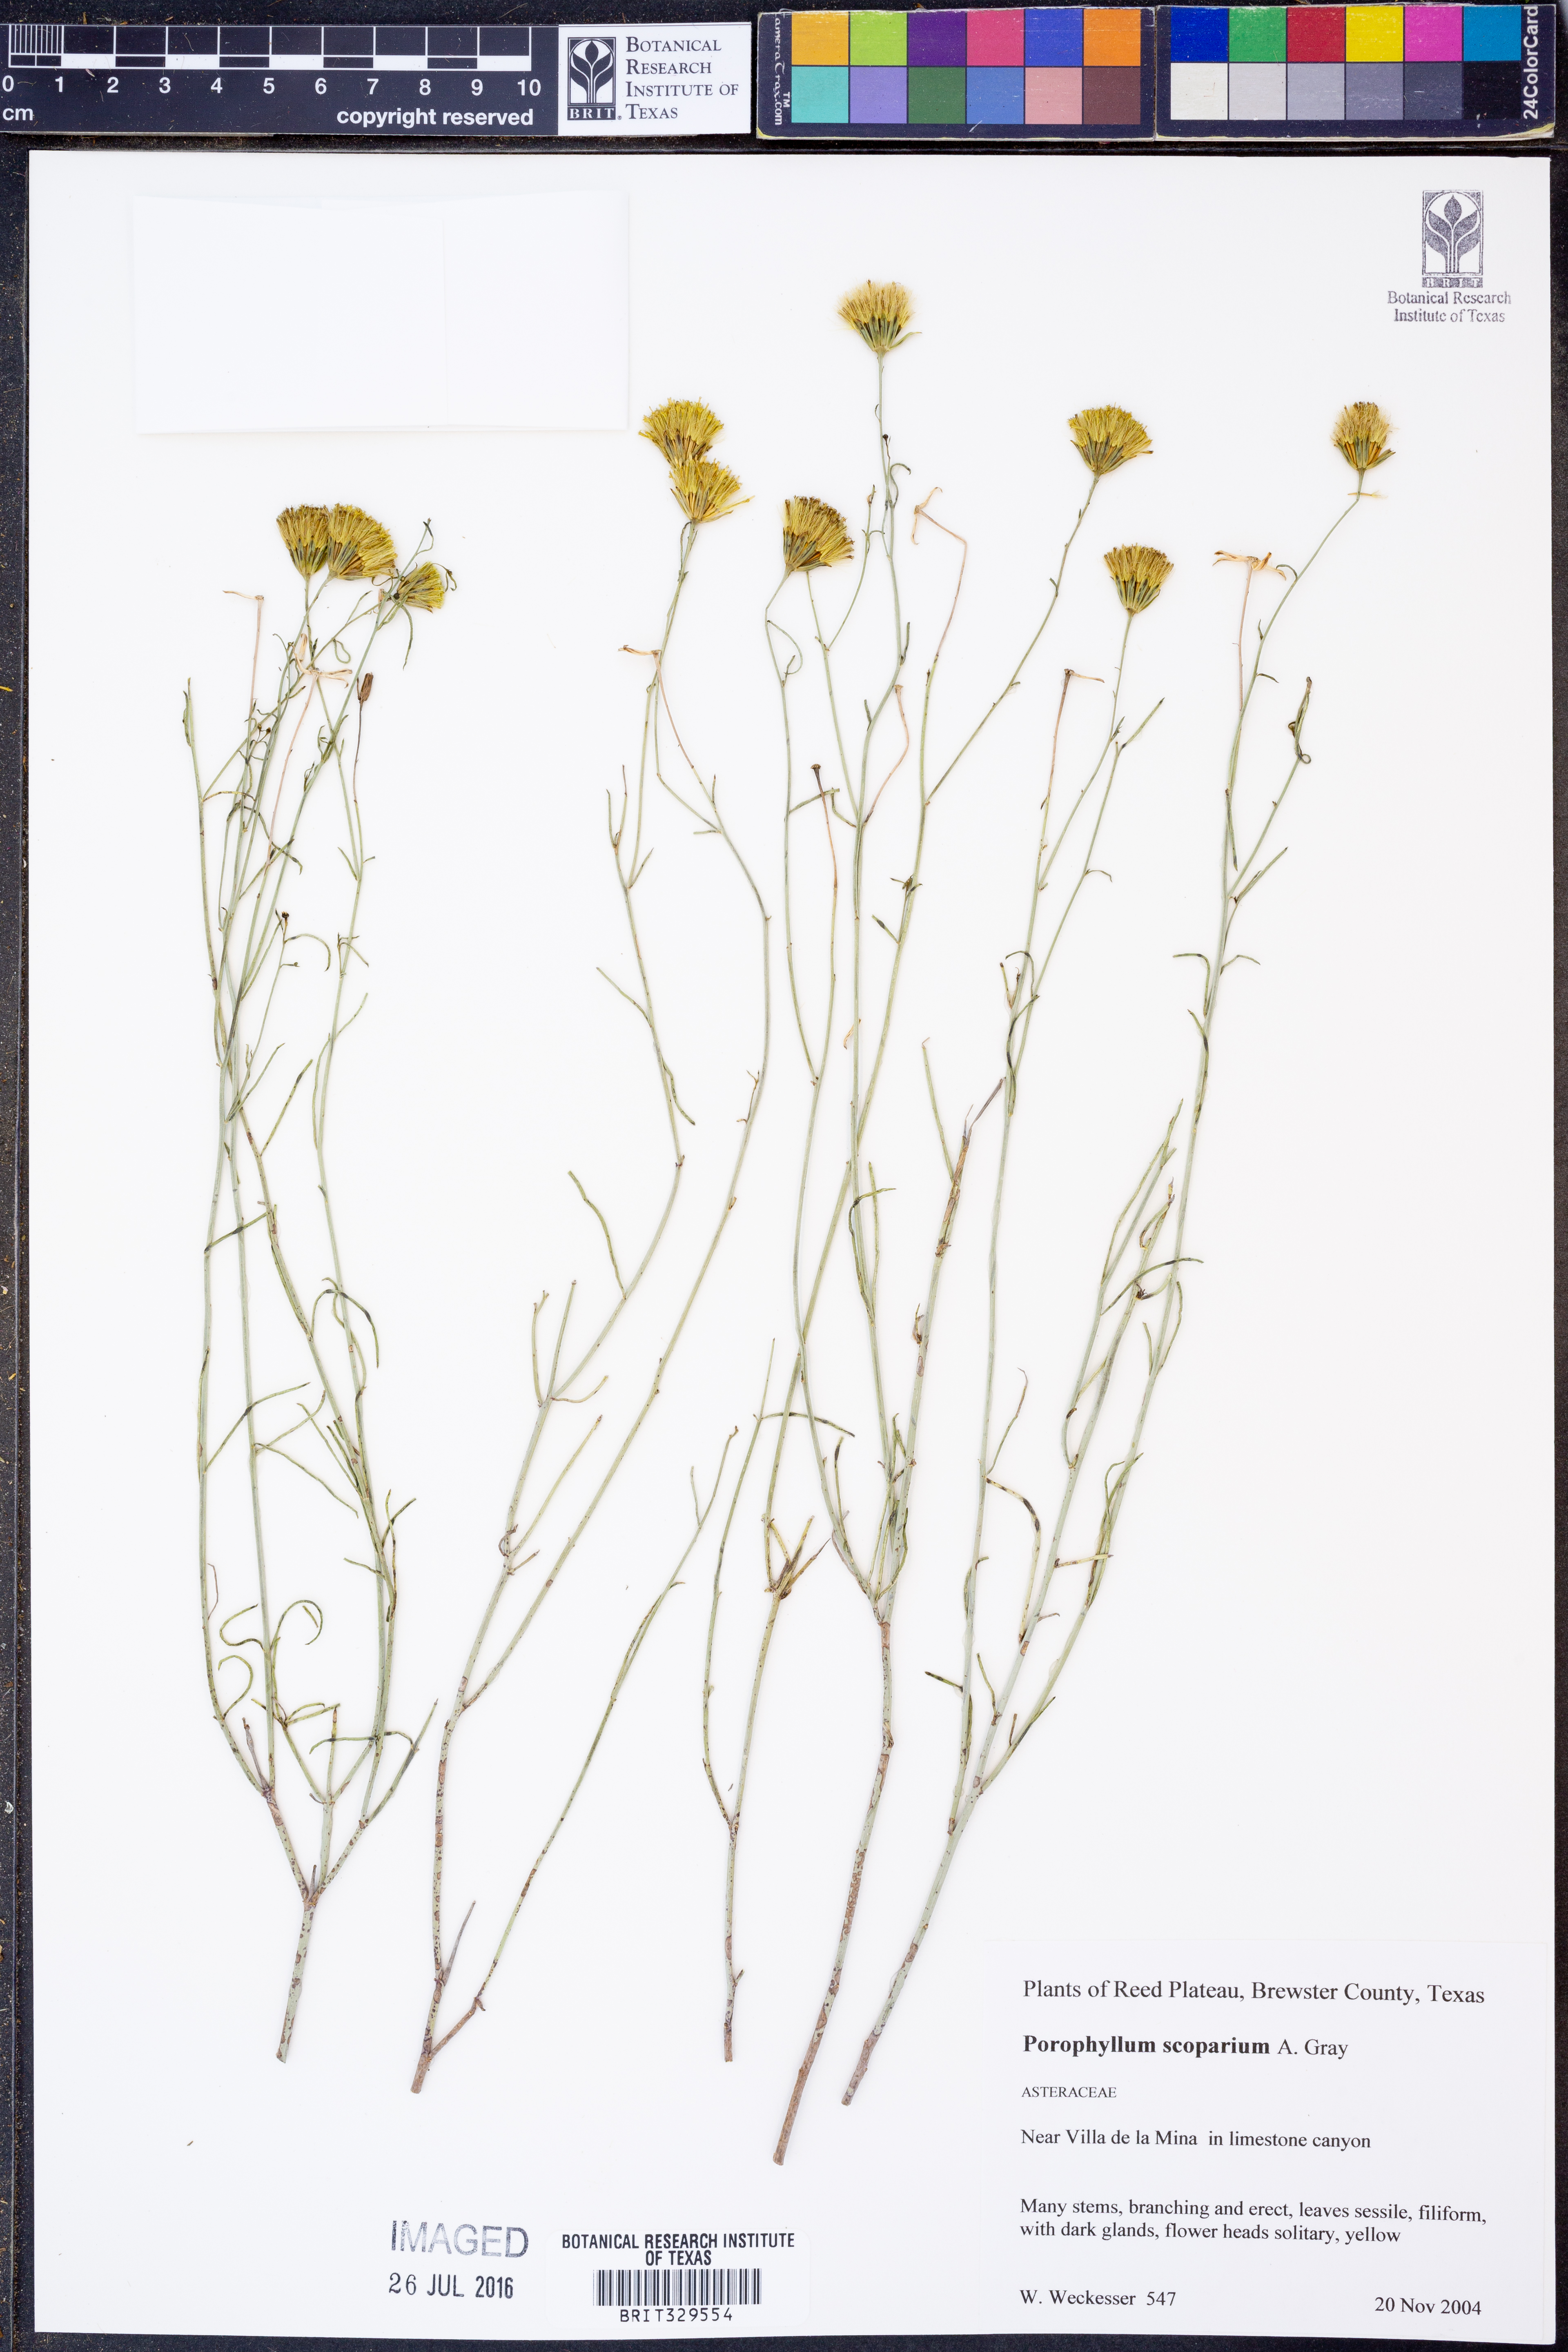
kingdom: Plantae
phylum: Tracheophyta
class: Magnoliopsida
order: Asterales
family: Asteraceae
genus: Porophyllum
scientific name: Porophyllum scoparium
